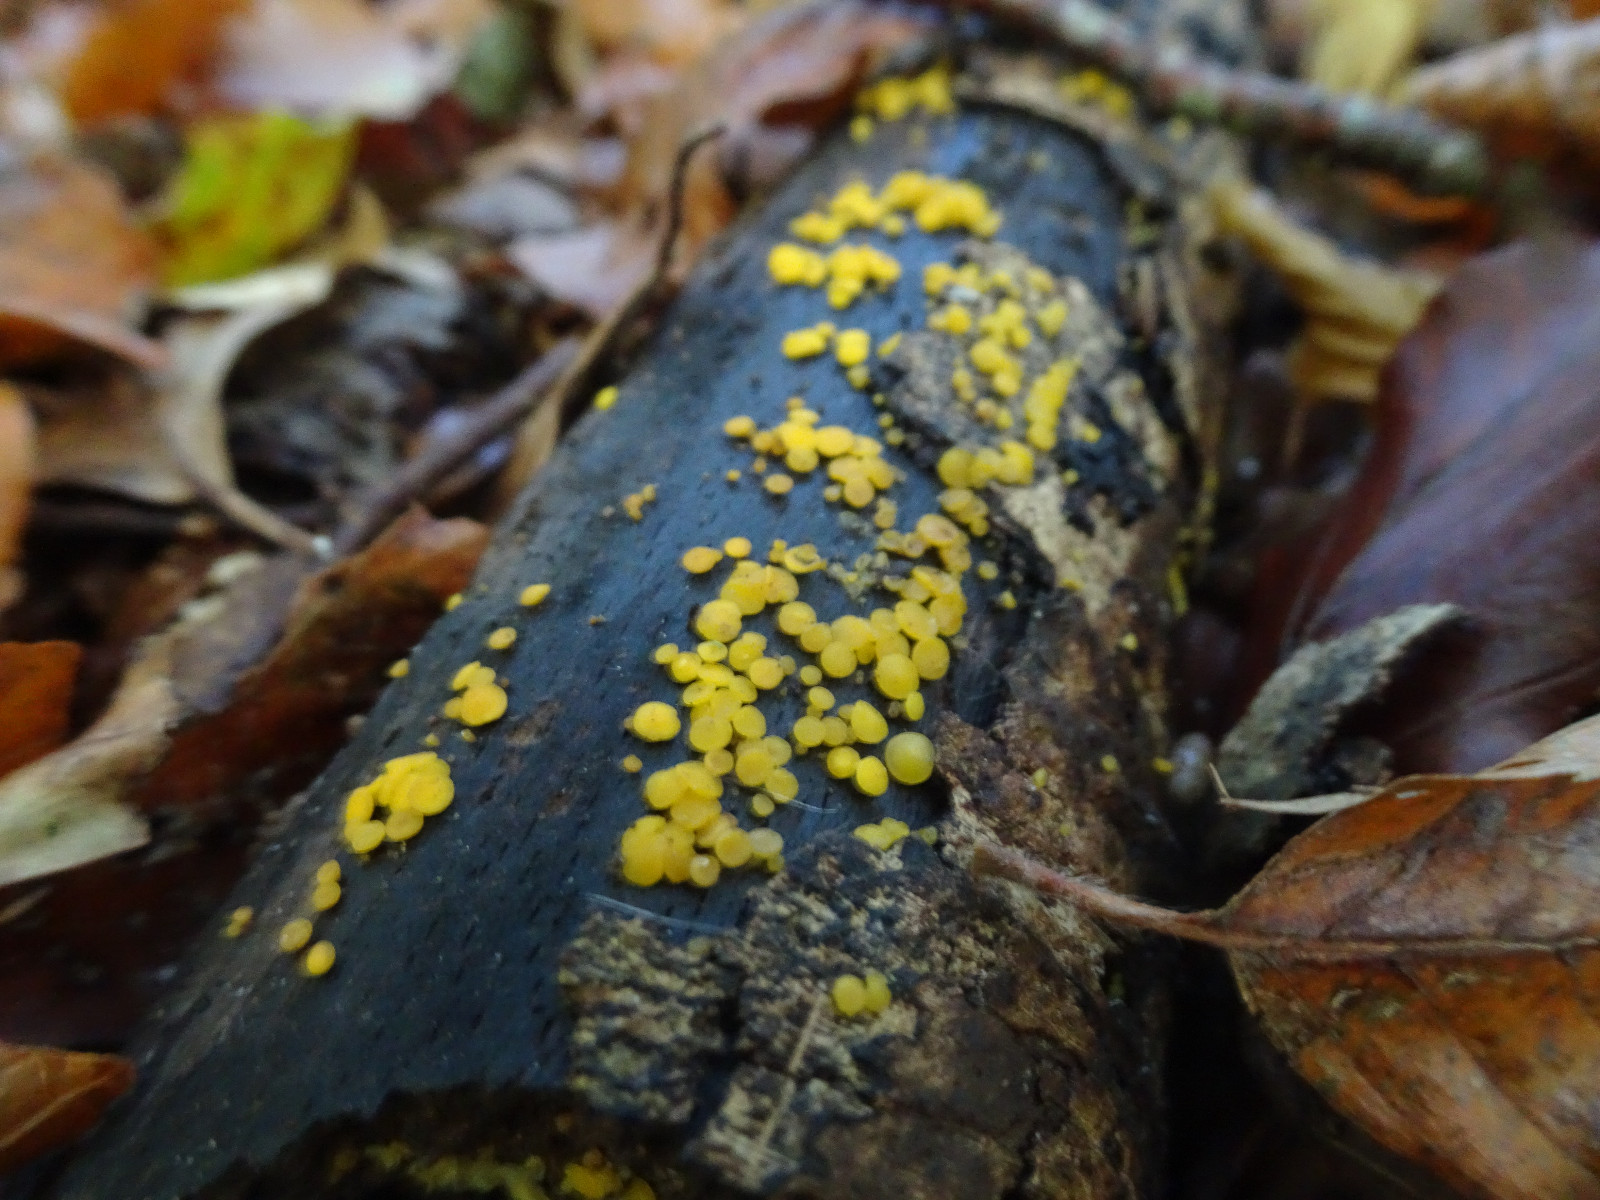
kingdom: Fungi
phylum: Ascomycota
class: Leotiomycetes
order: Helotiales
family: Pezizellaceae
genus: Calycina
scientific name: Calycina citrina
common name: almindelig gulskive
